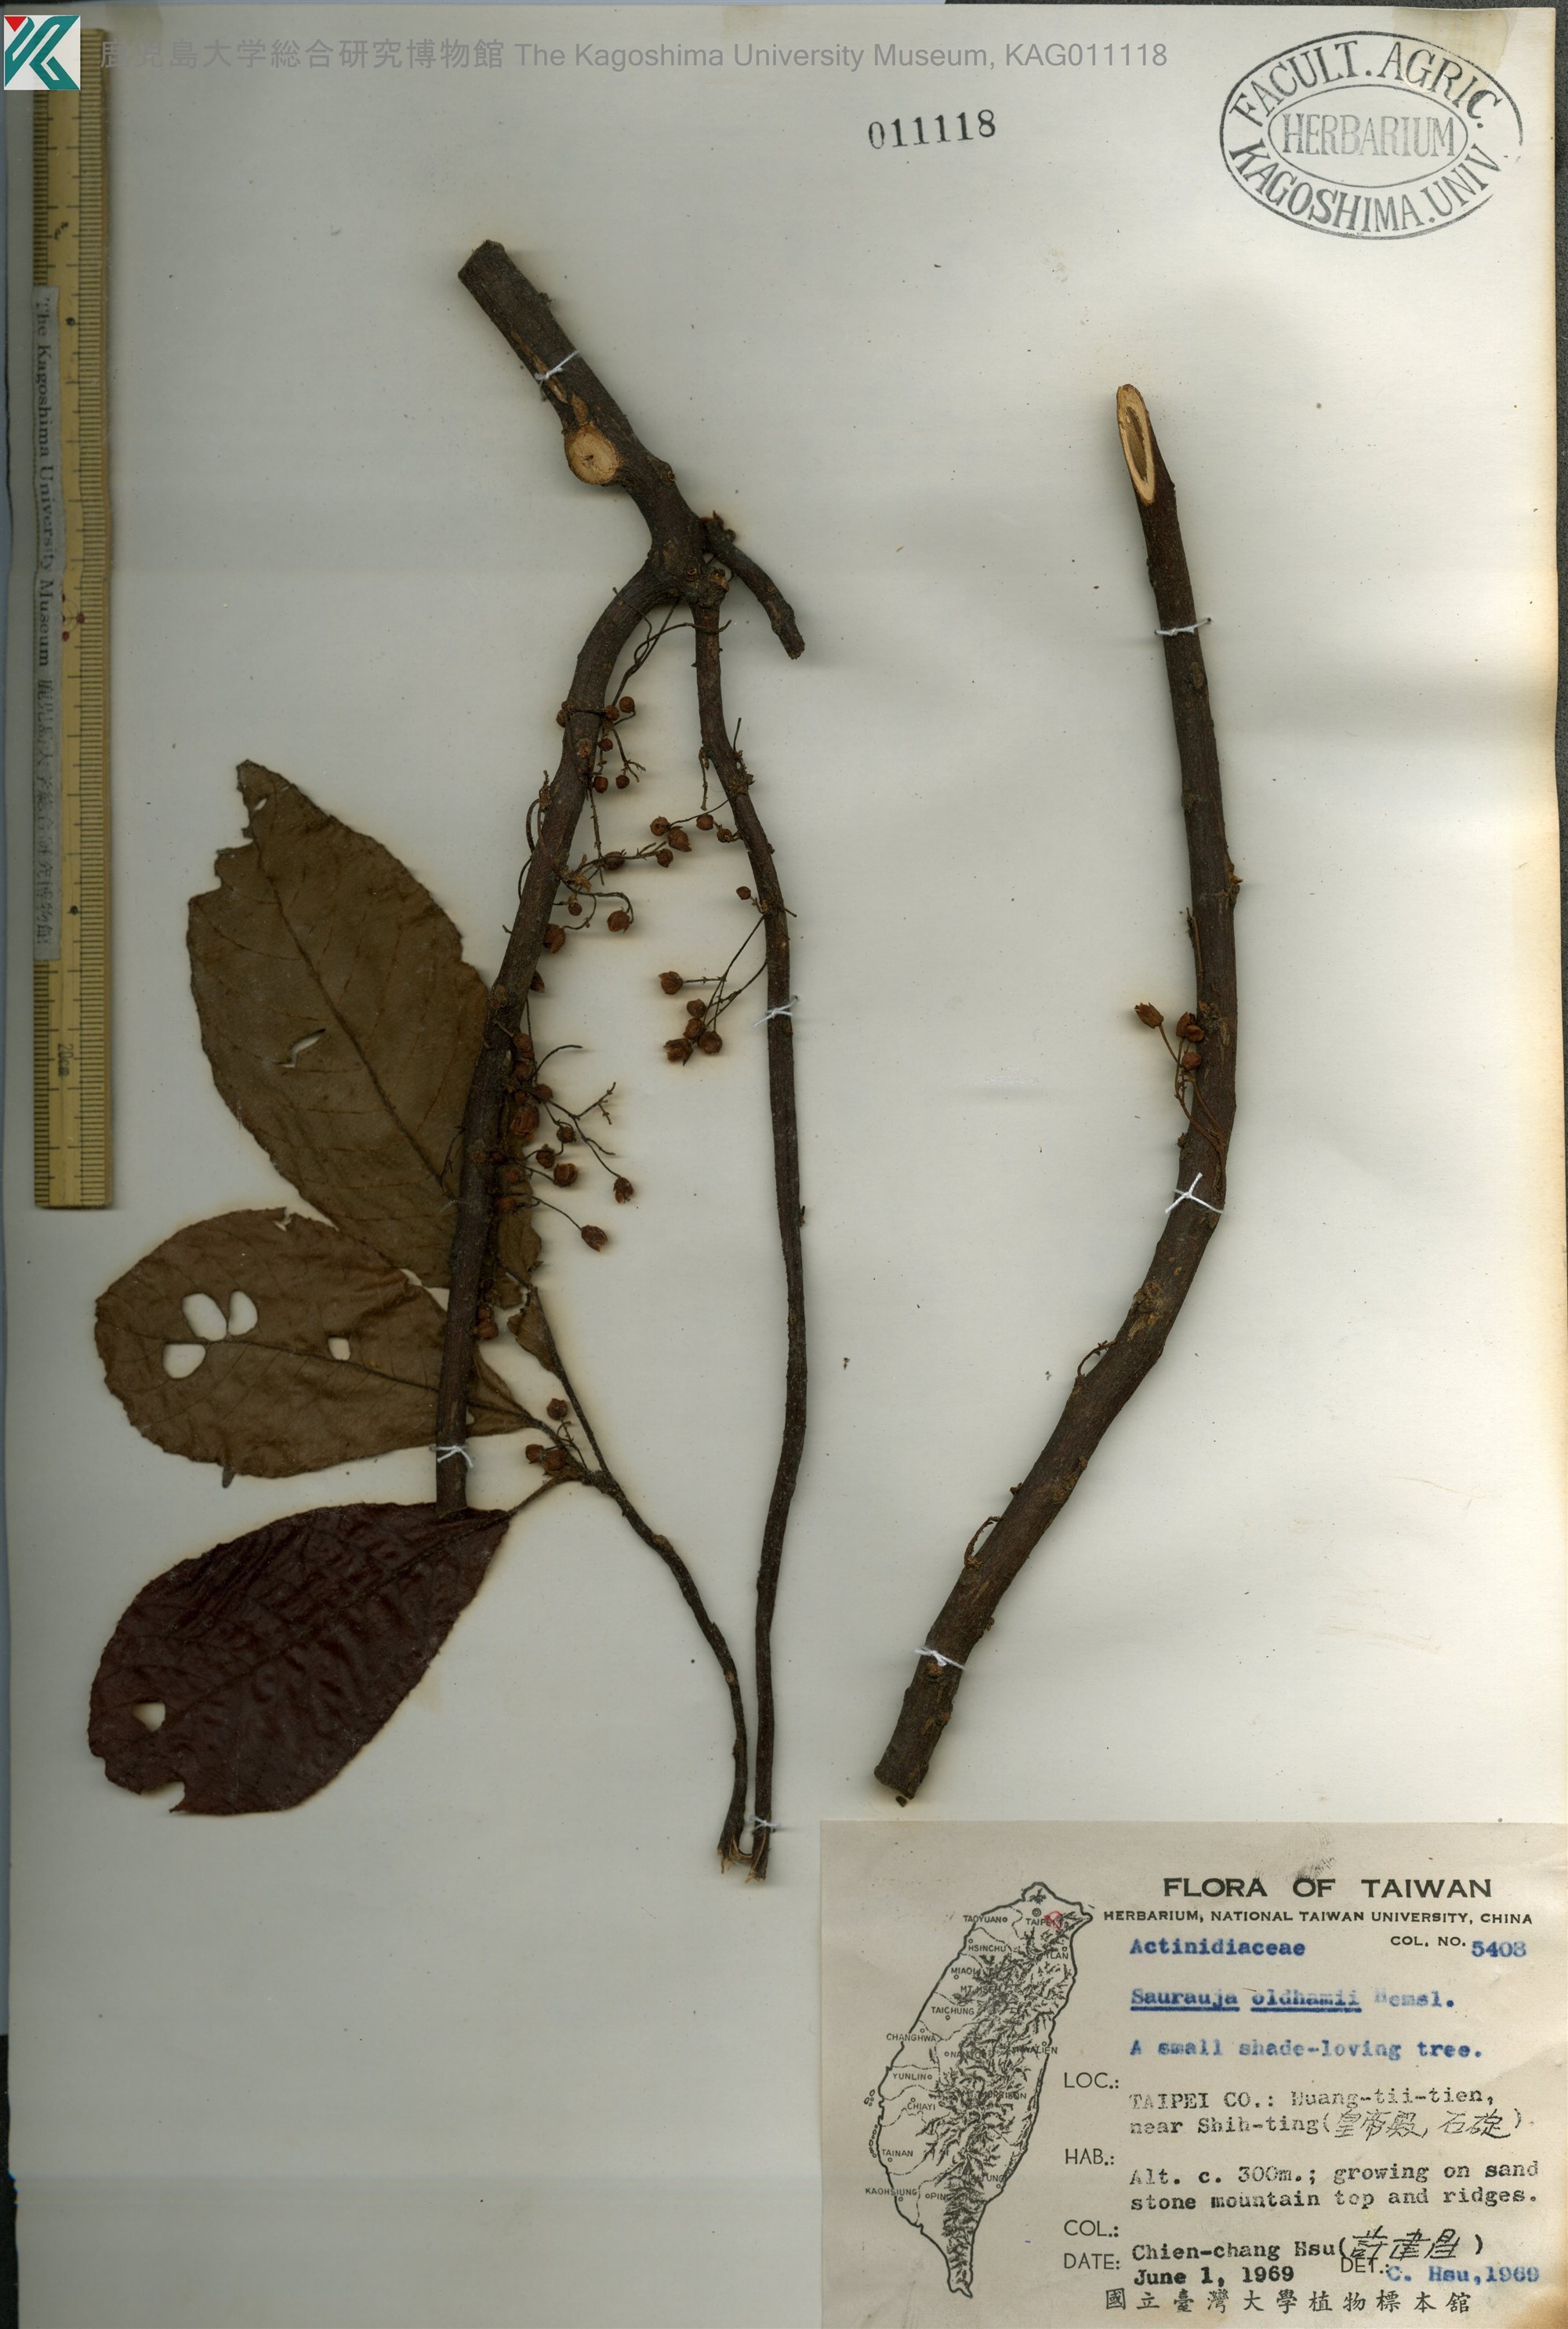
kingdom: Plantae
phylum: Tracheophyta
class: Magnoliopsida
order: Ericales
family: Actinidiaceae
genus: Saurauia
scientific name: Saurauia tristyla
